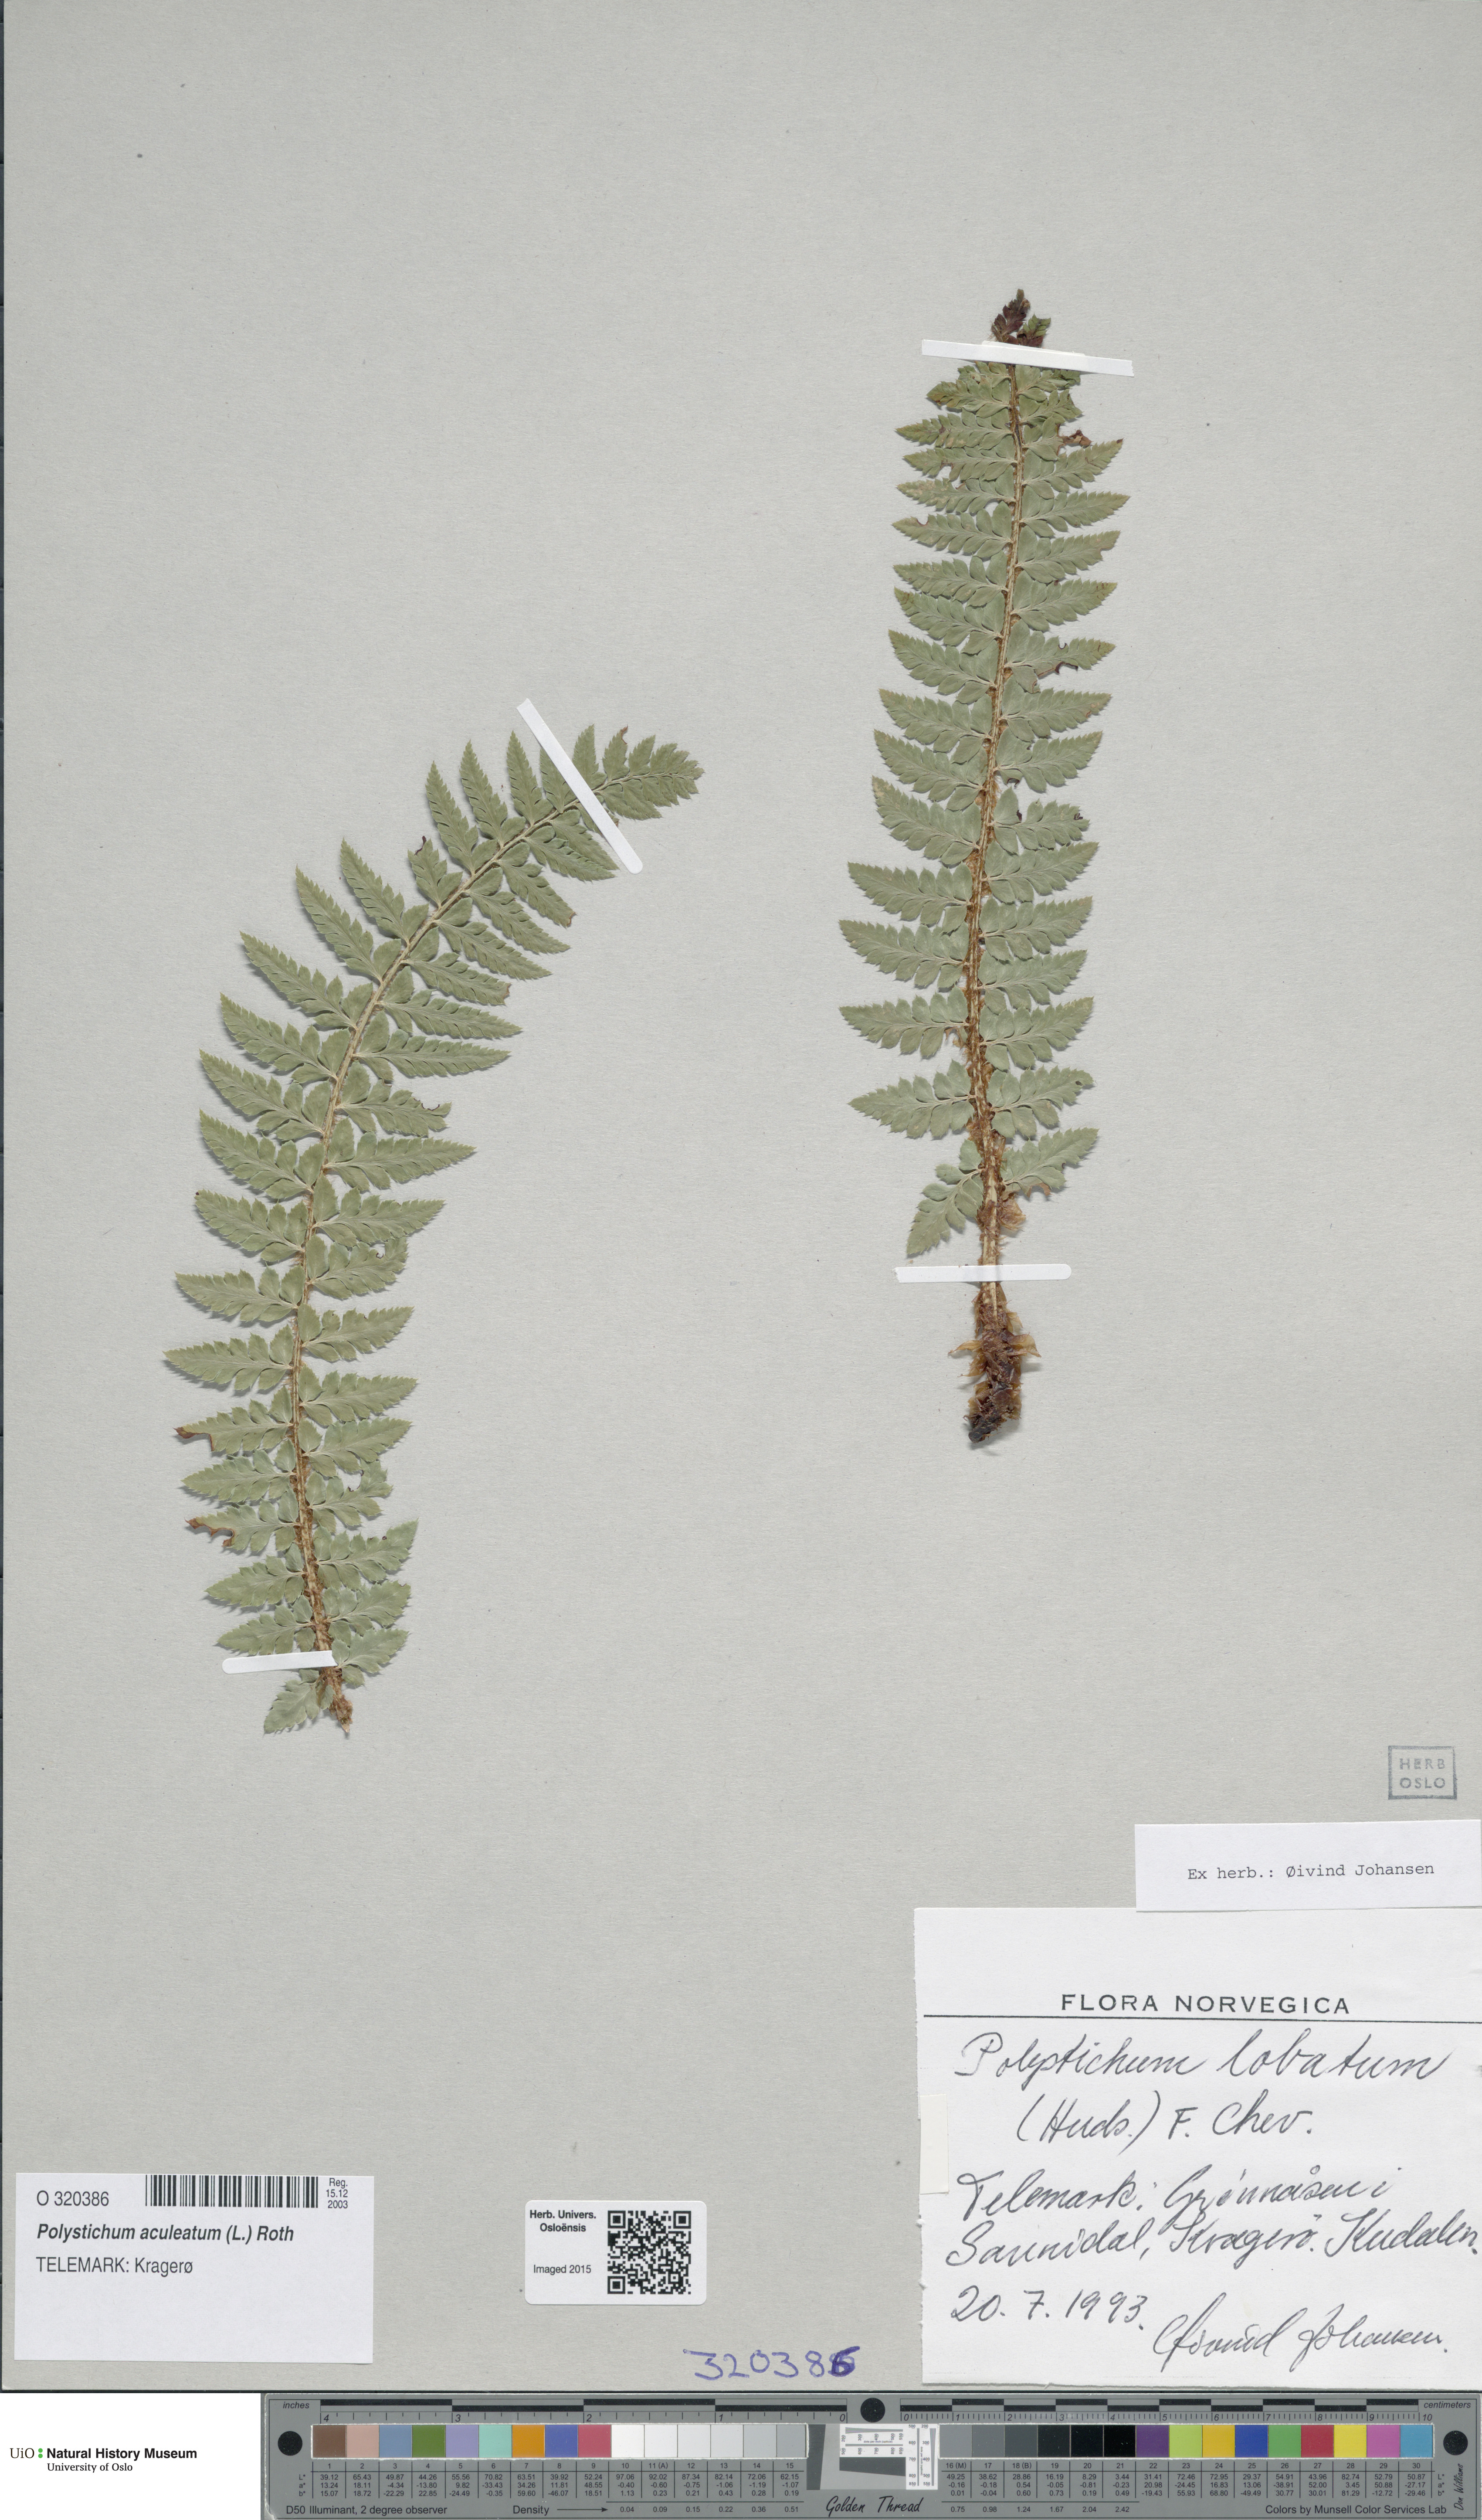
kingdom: Plantae
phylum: Tracheophyta
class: Polypodiopsida
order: Polypodiales
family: Dryopteridaceae
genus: Polystichum
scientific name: Polystichum aculeatum
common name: Hard shield-fern
